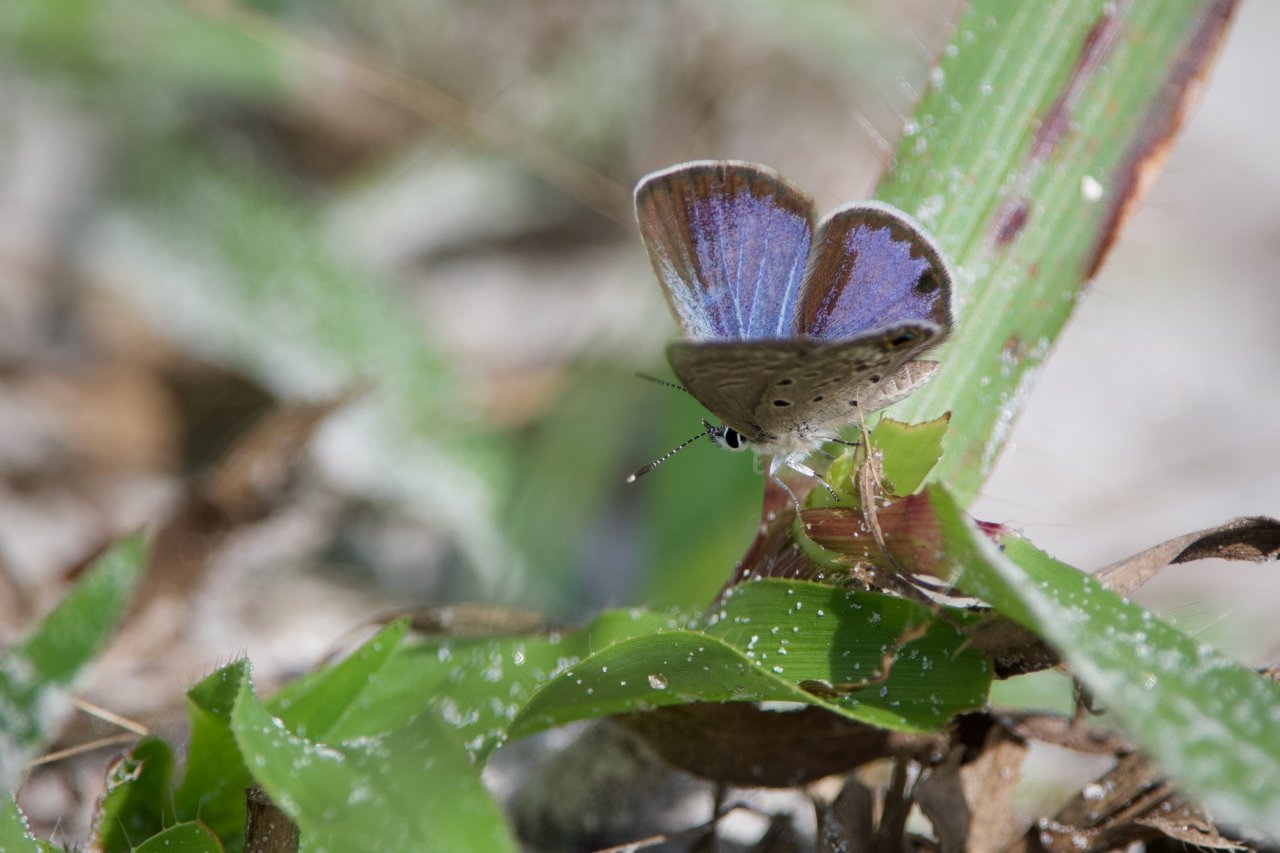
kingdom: Animalia
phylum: Arthropoda
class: Insecta
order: Lepidoptera
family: Lycaenidae
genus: Hemiargus
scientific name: Hemiargus ceraunus
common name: Ceraunus Blue
